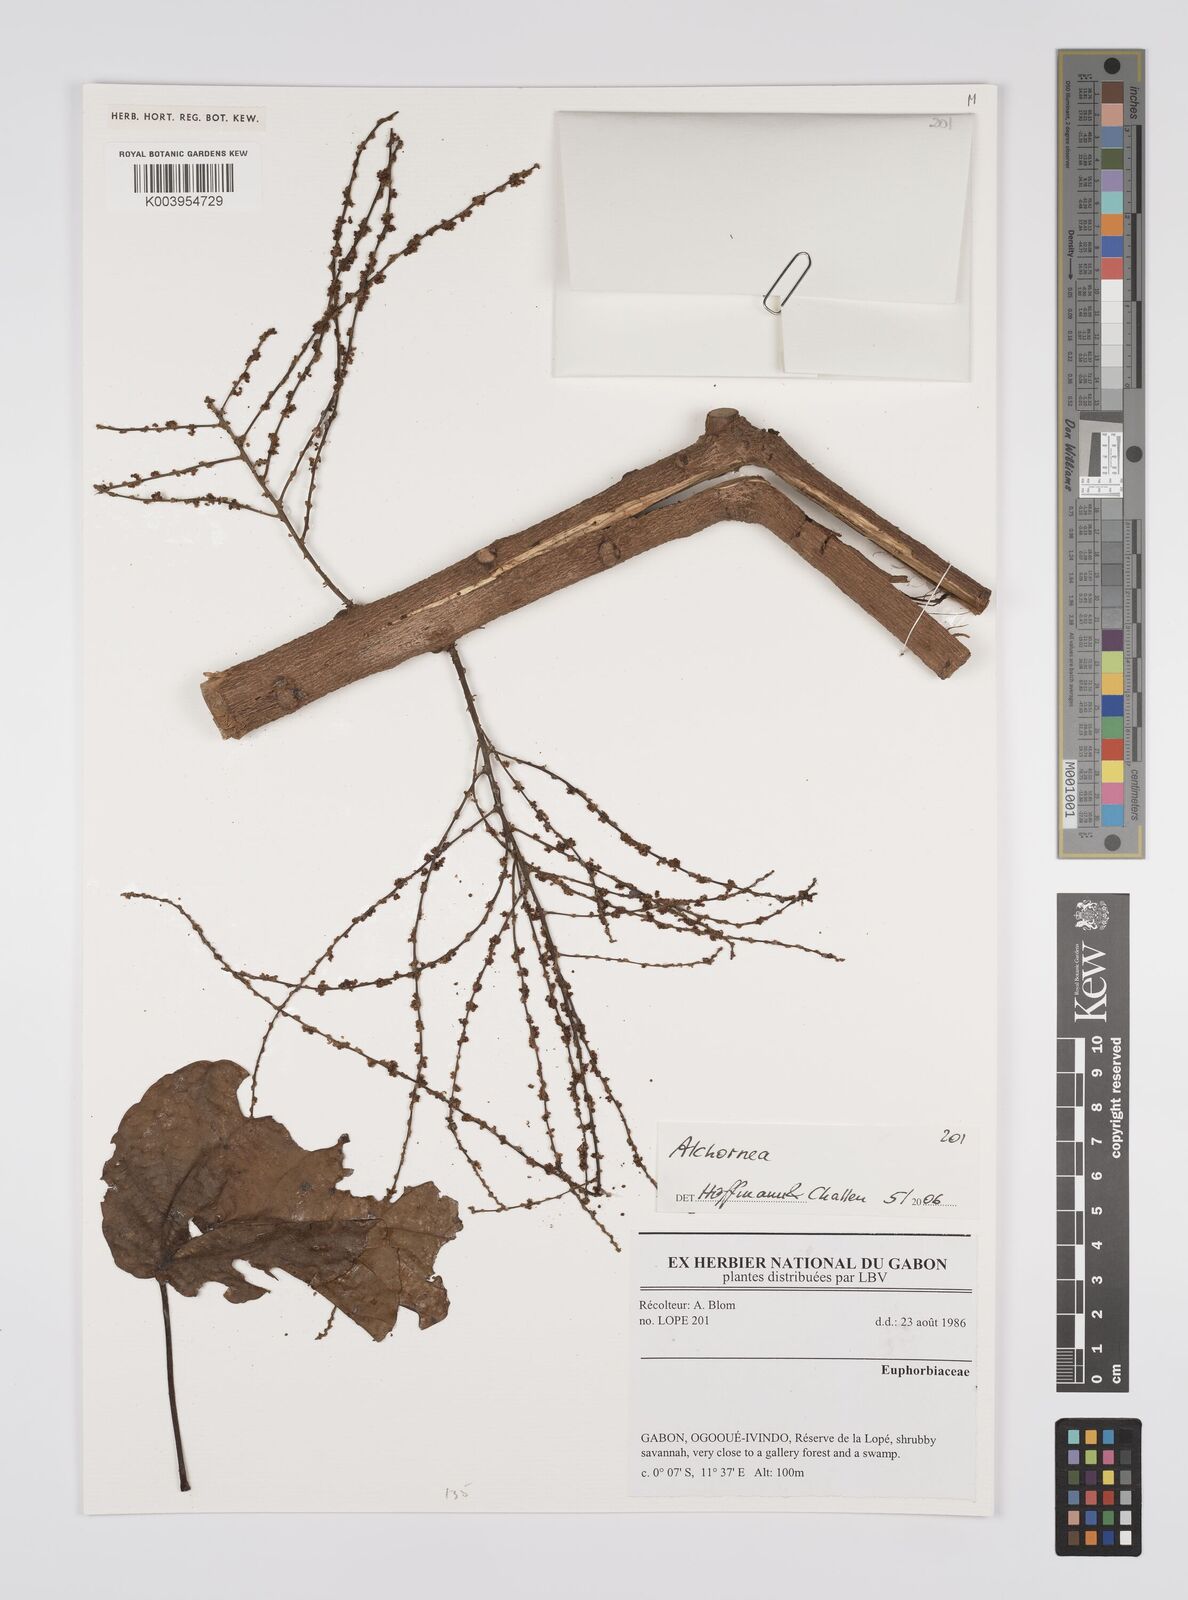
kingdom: Plantae
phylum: Tracheophyta
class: Magnoliopsida
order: Malpighiales
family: Euphorbiaceae
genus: Alchornea
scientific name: Alchornea
